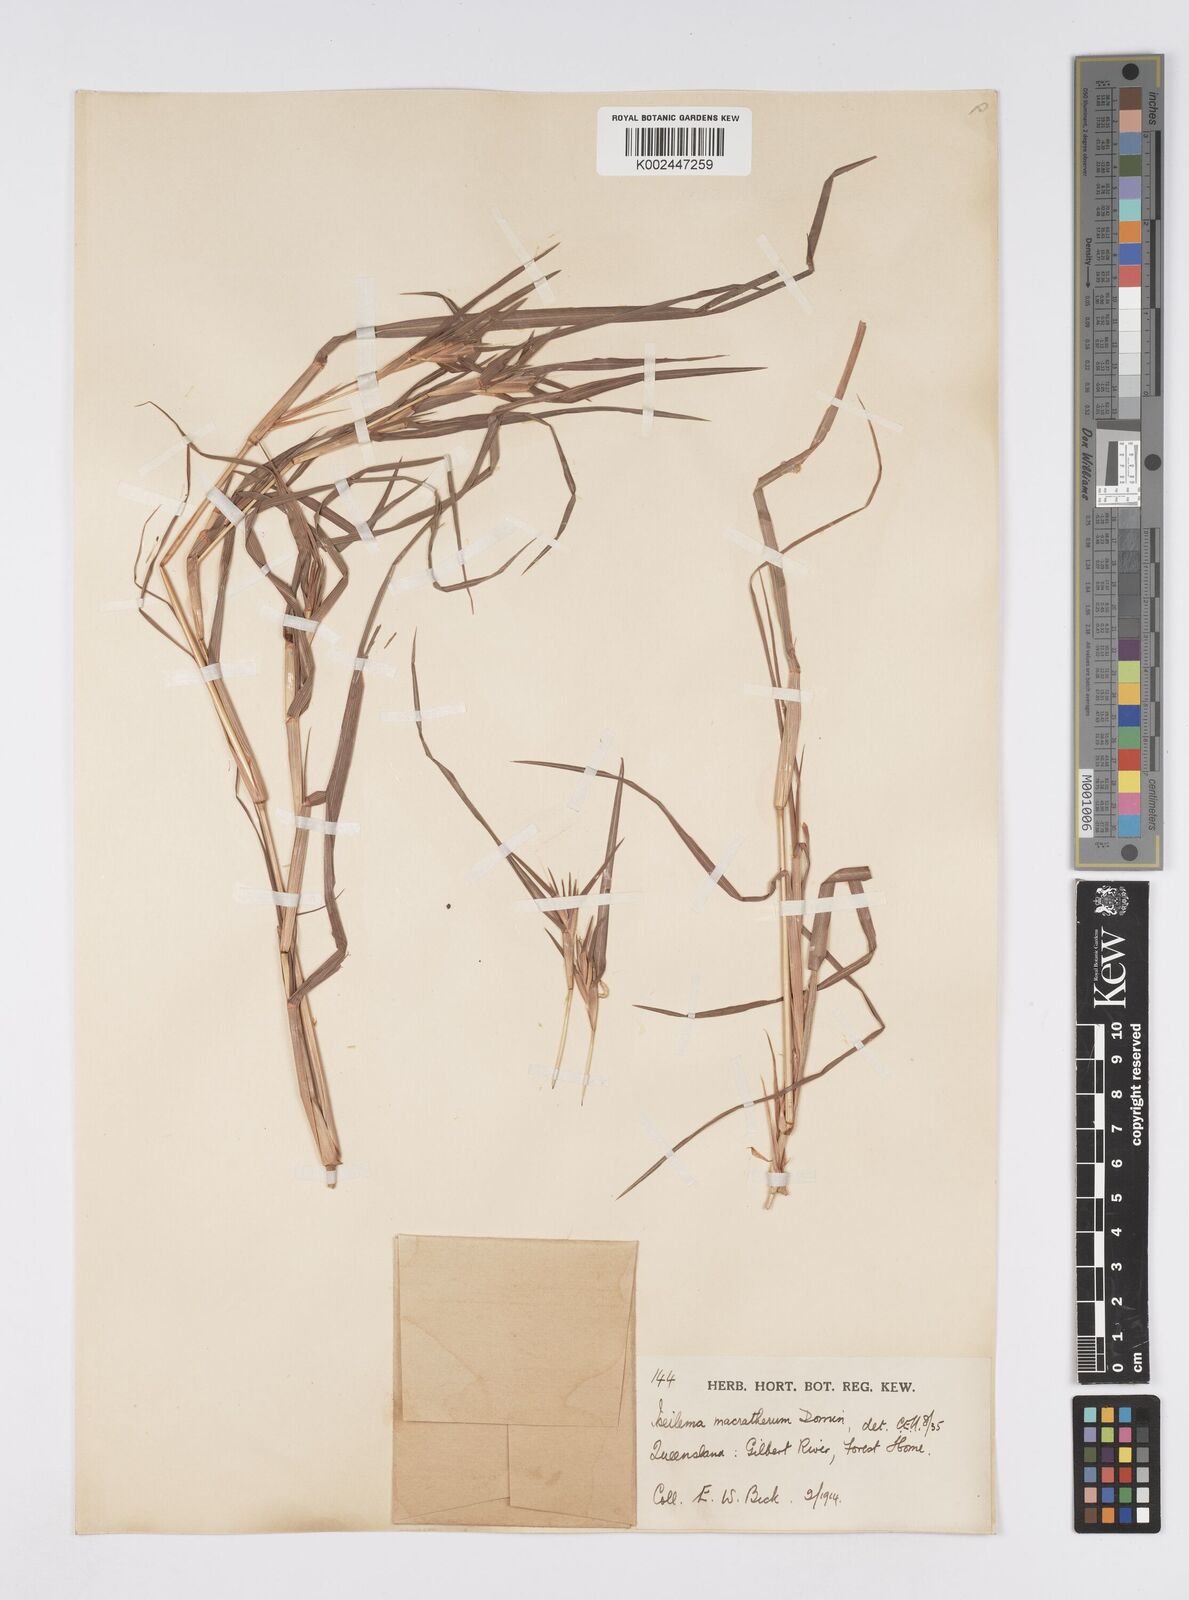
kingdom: Plantae
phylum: Tracheophyta
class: Liliopsida
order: Poales
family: Poaceae
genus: Iseilema
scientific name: Iseilema macratherum
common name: Bull flinders grass
